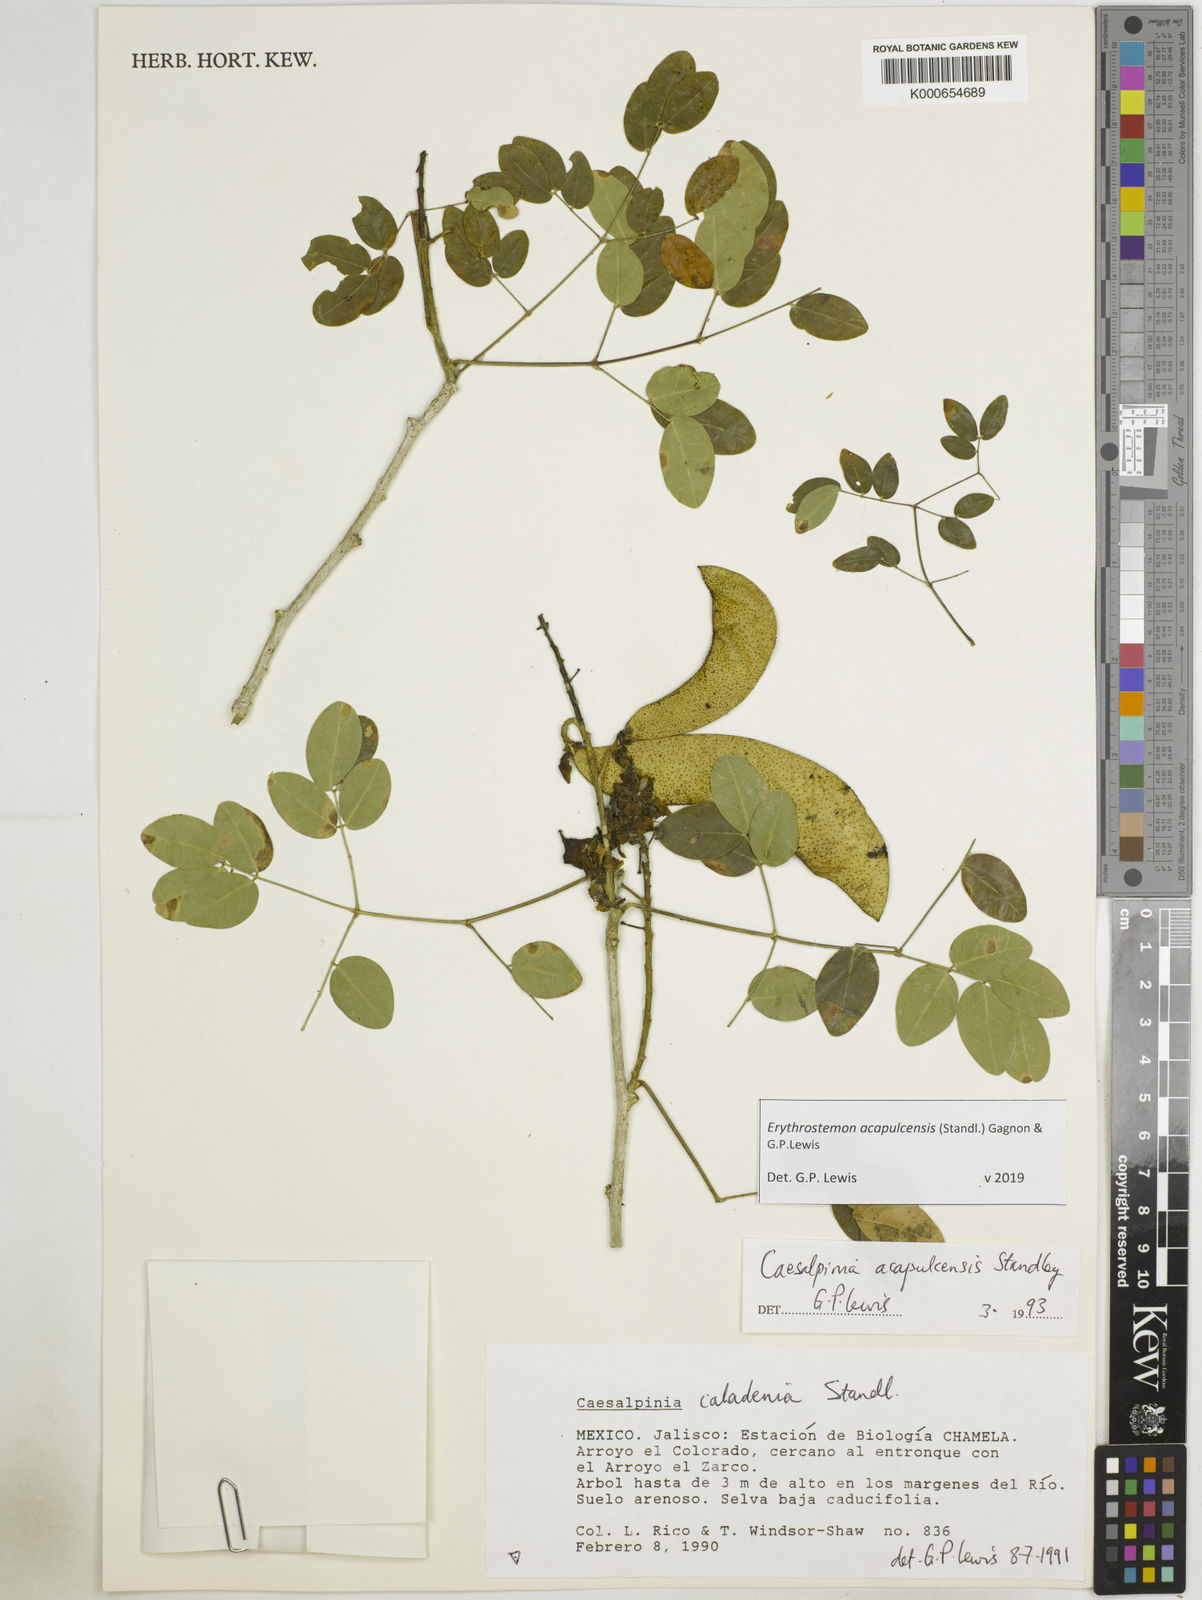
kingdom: Plantae
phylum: Tracheophyta
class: Magnoliopsida
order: Fabales
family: Fabaceae
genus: Erythrostemon
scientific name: Erythrostemon acapulcensis
